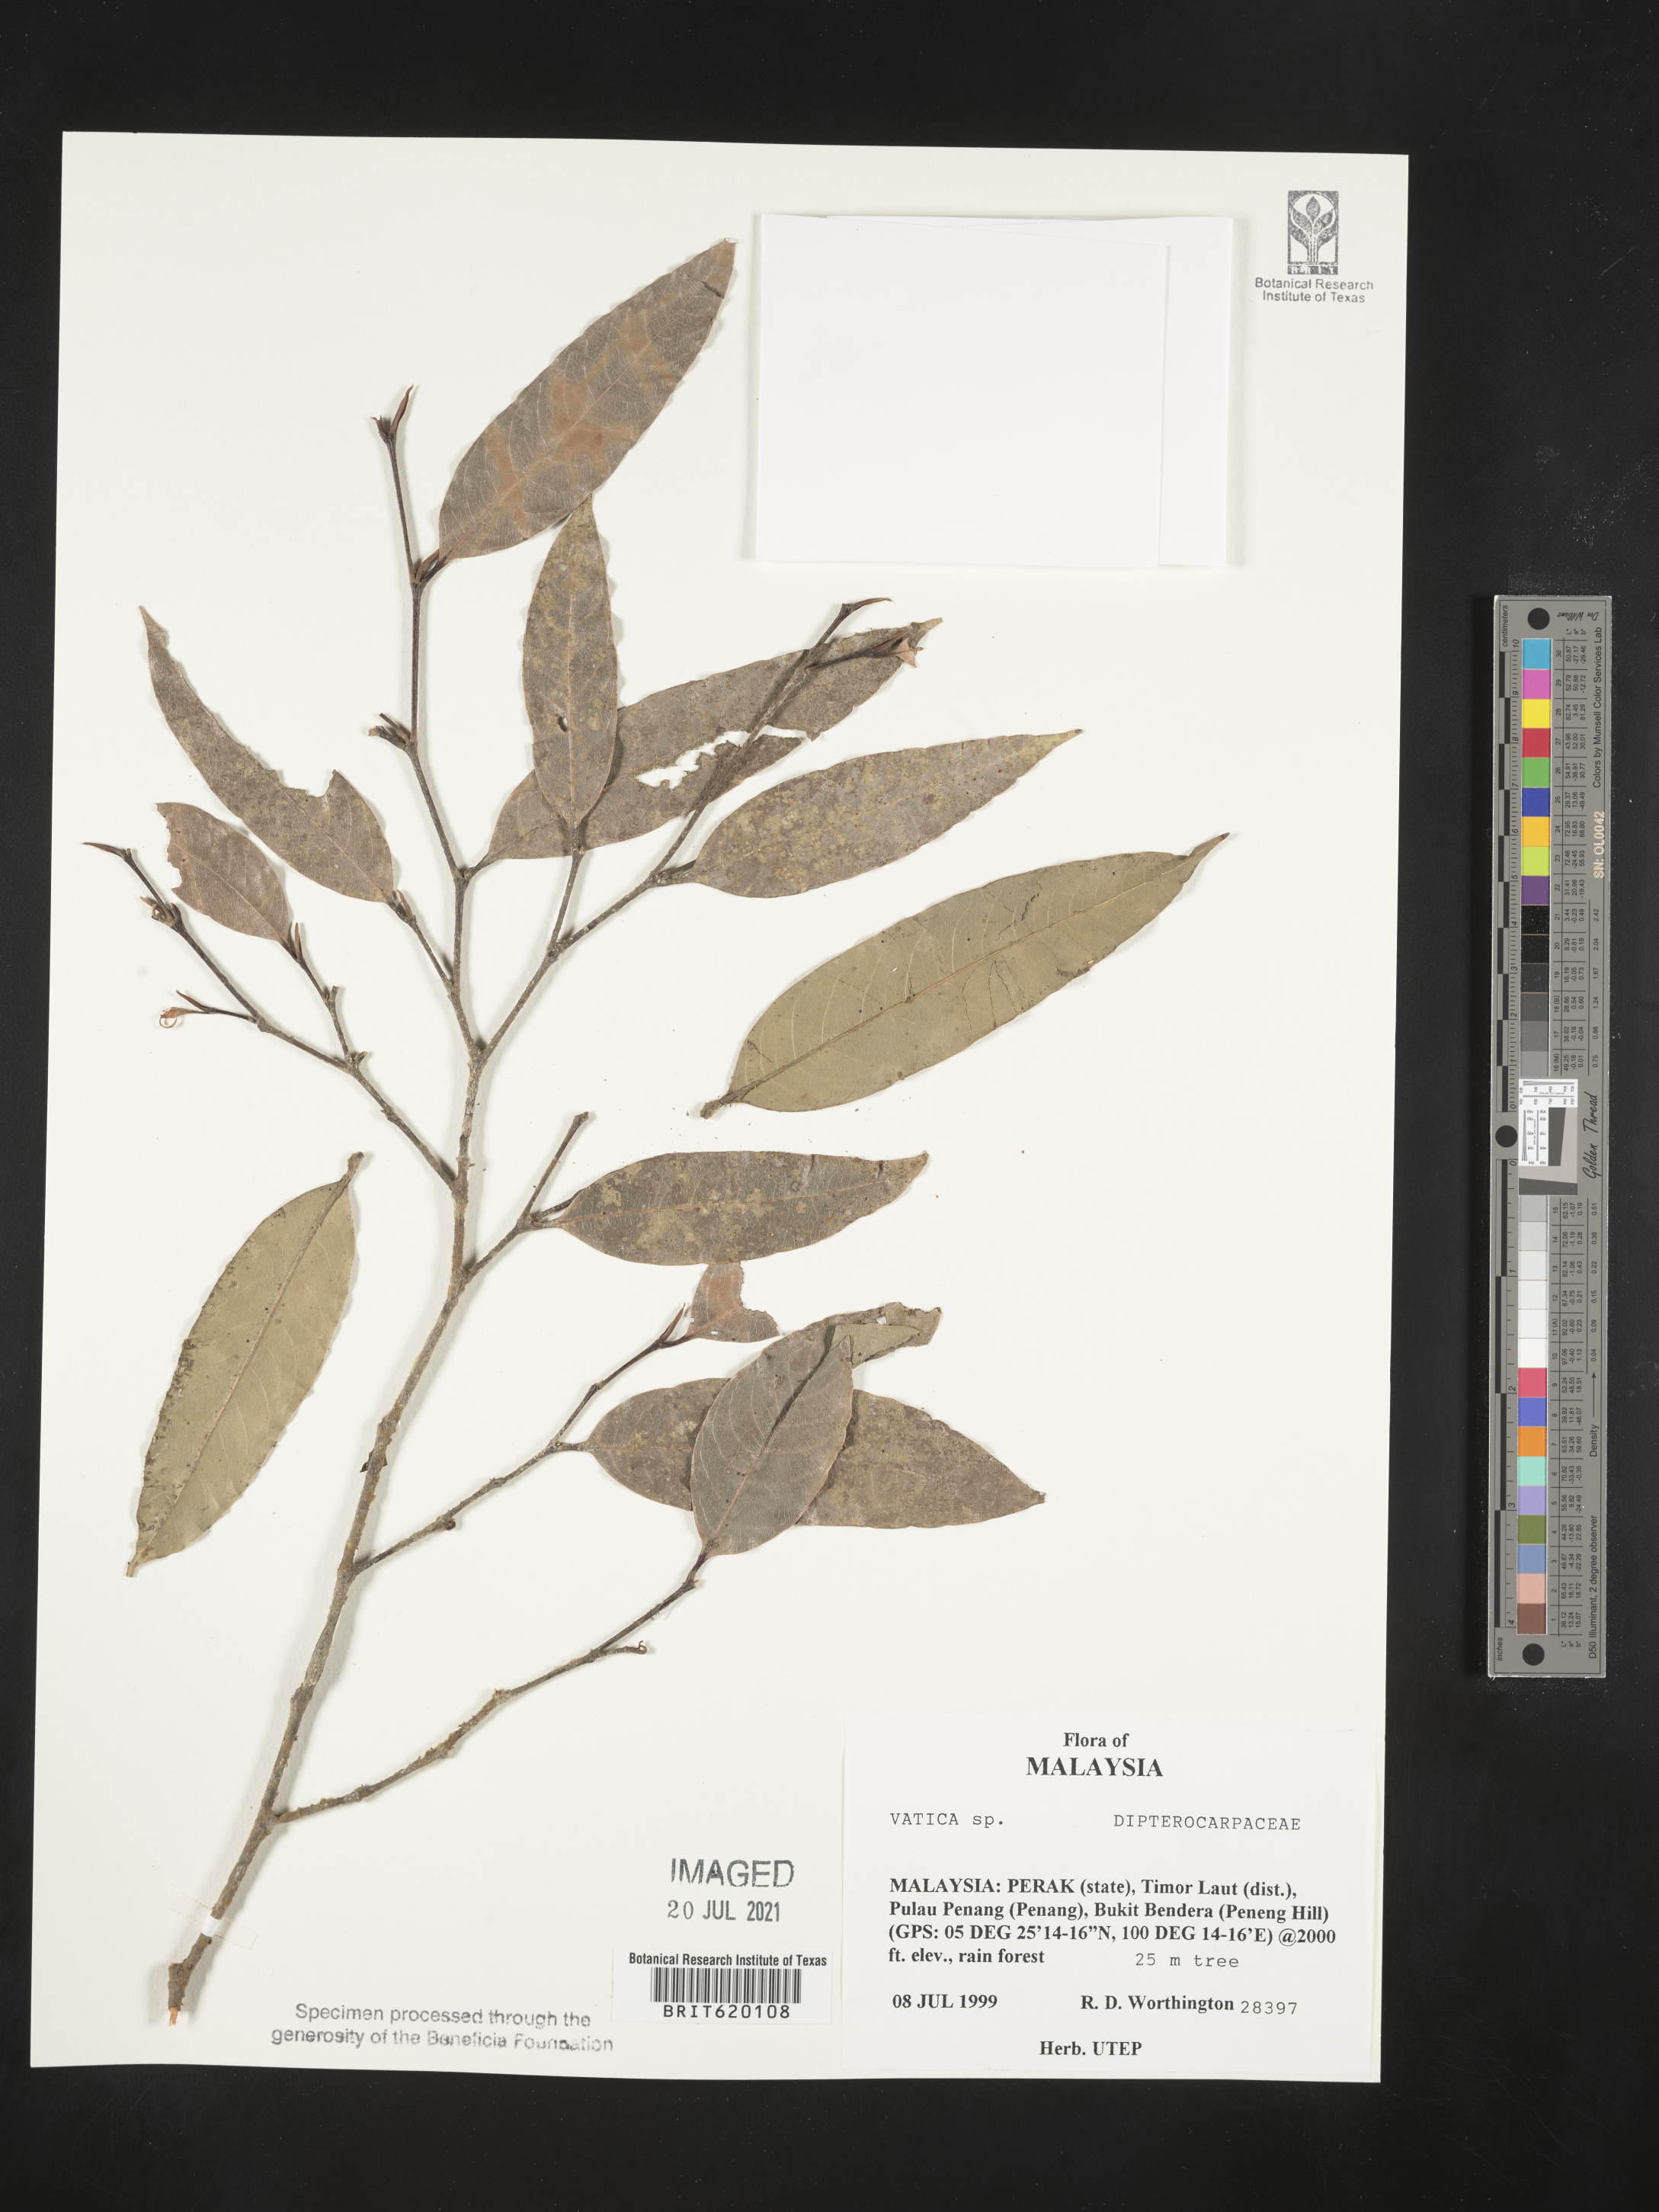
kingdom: Plantae
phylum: Tracheophyta
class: Magnoliopsida
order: Malvales
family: Dipterocarpaceae
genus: Vatica
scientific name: Vatica
